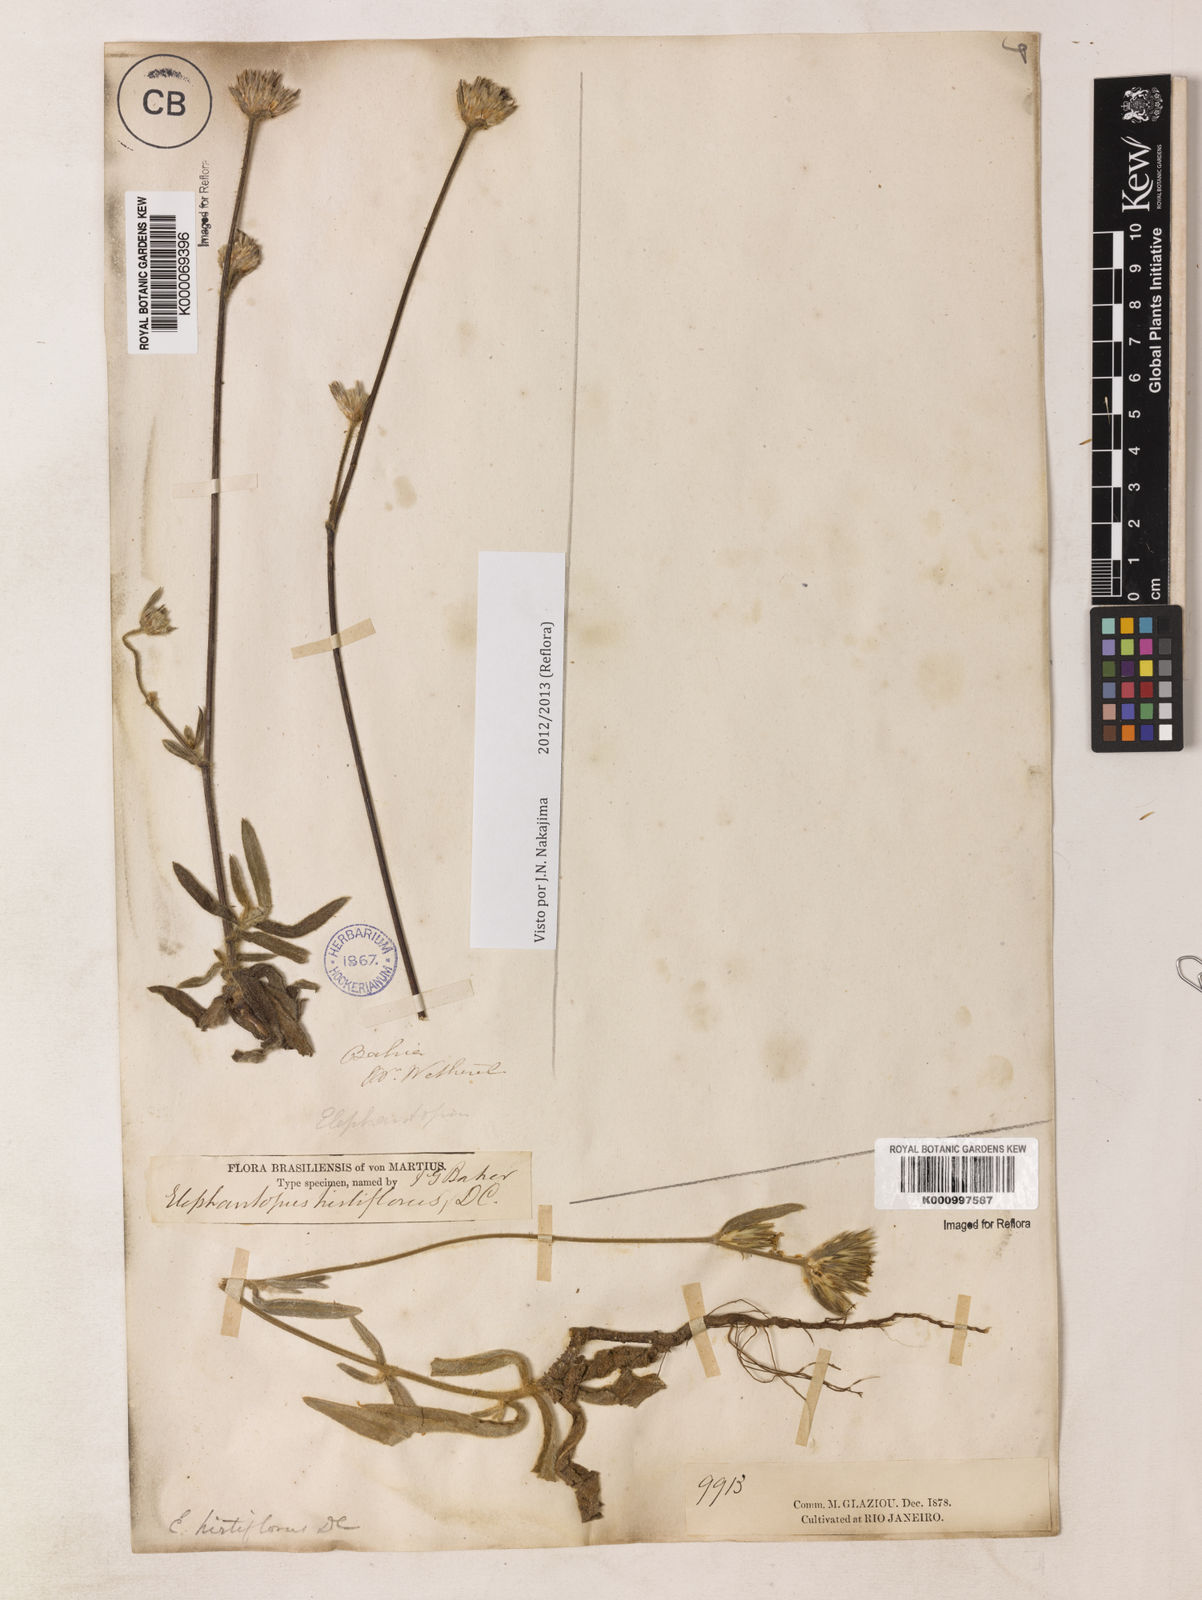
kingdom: Plantae
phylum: Tracheophyta
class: Magnoliopsida
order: Asterales
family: Asteraceae
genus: Elephantopus
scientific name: Elephantopus hirtiflorus
